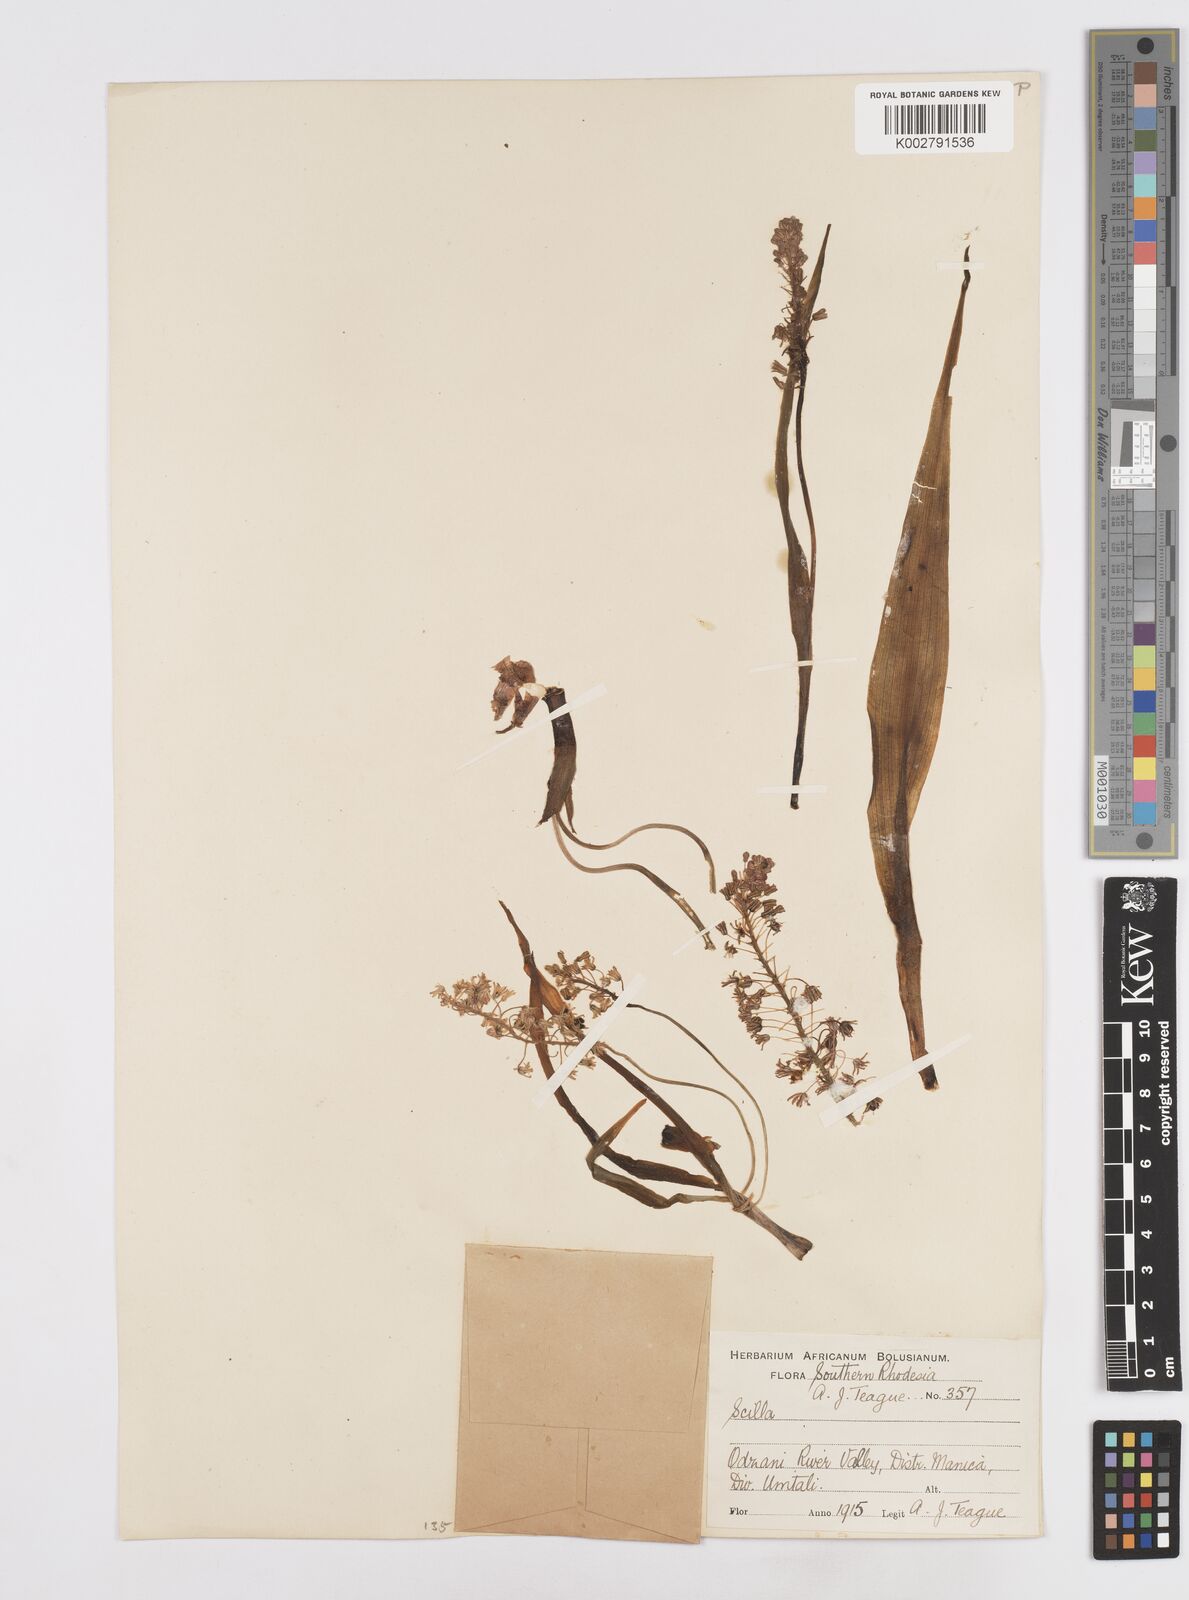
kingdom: Plantae
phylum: Tracheophyta
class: Liliopsida
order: Asparagales
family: Asparagaceae
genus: Scilla
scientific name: Scilla
